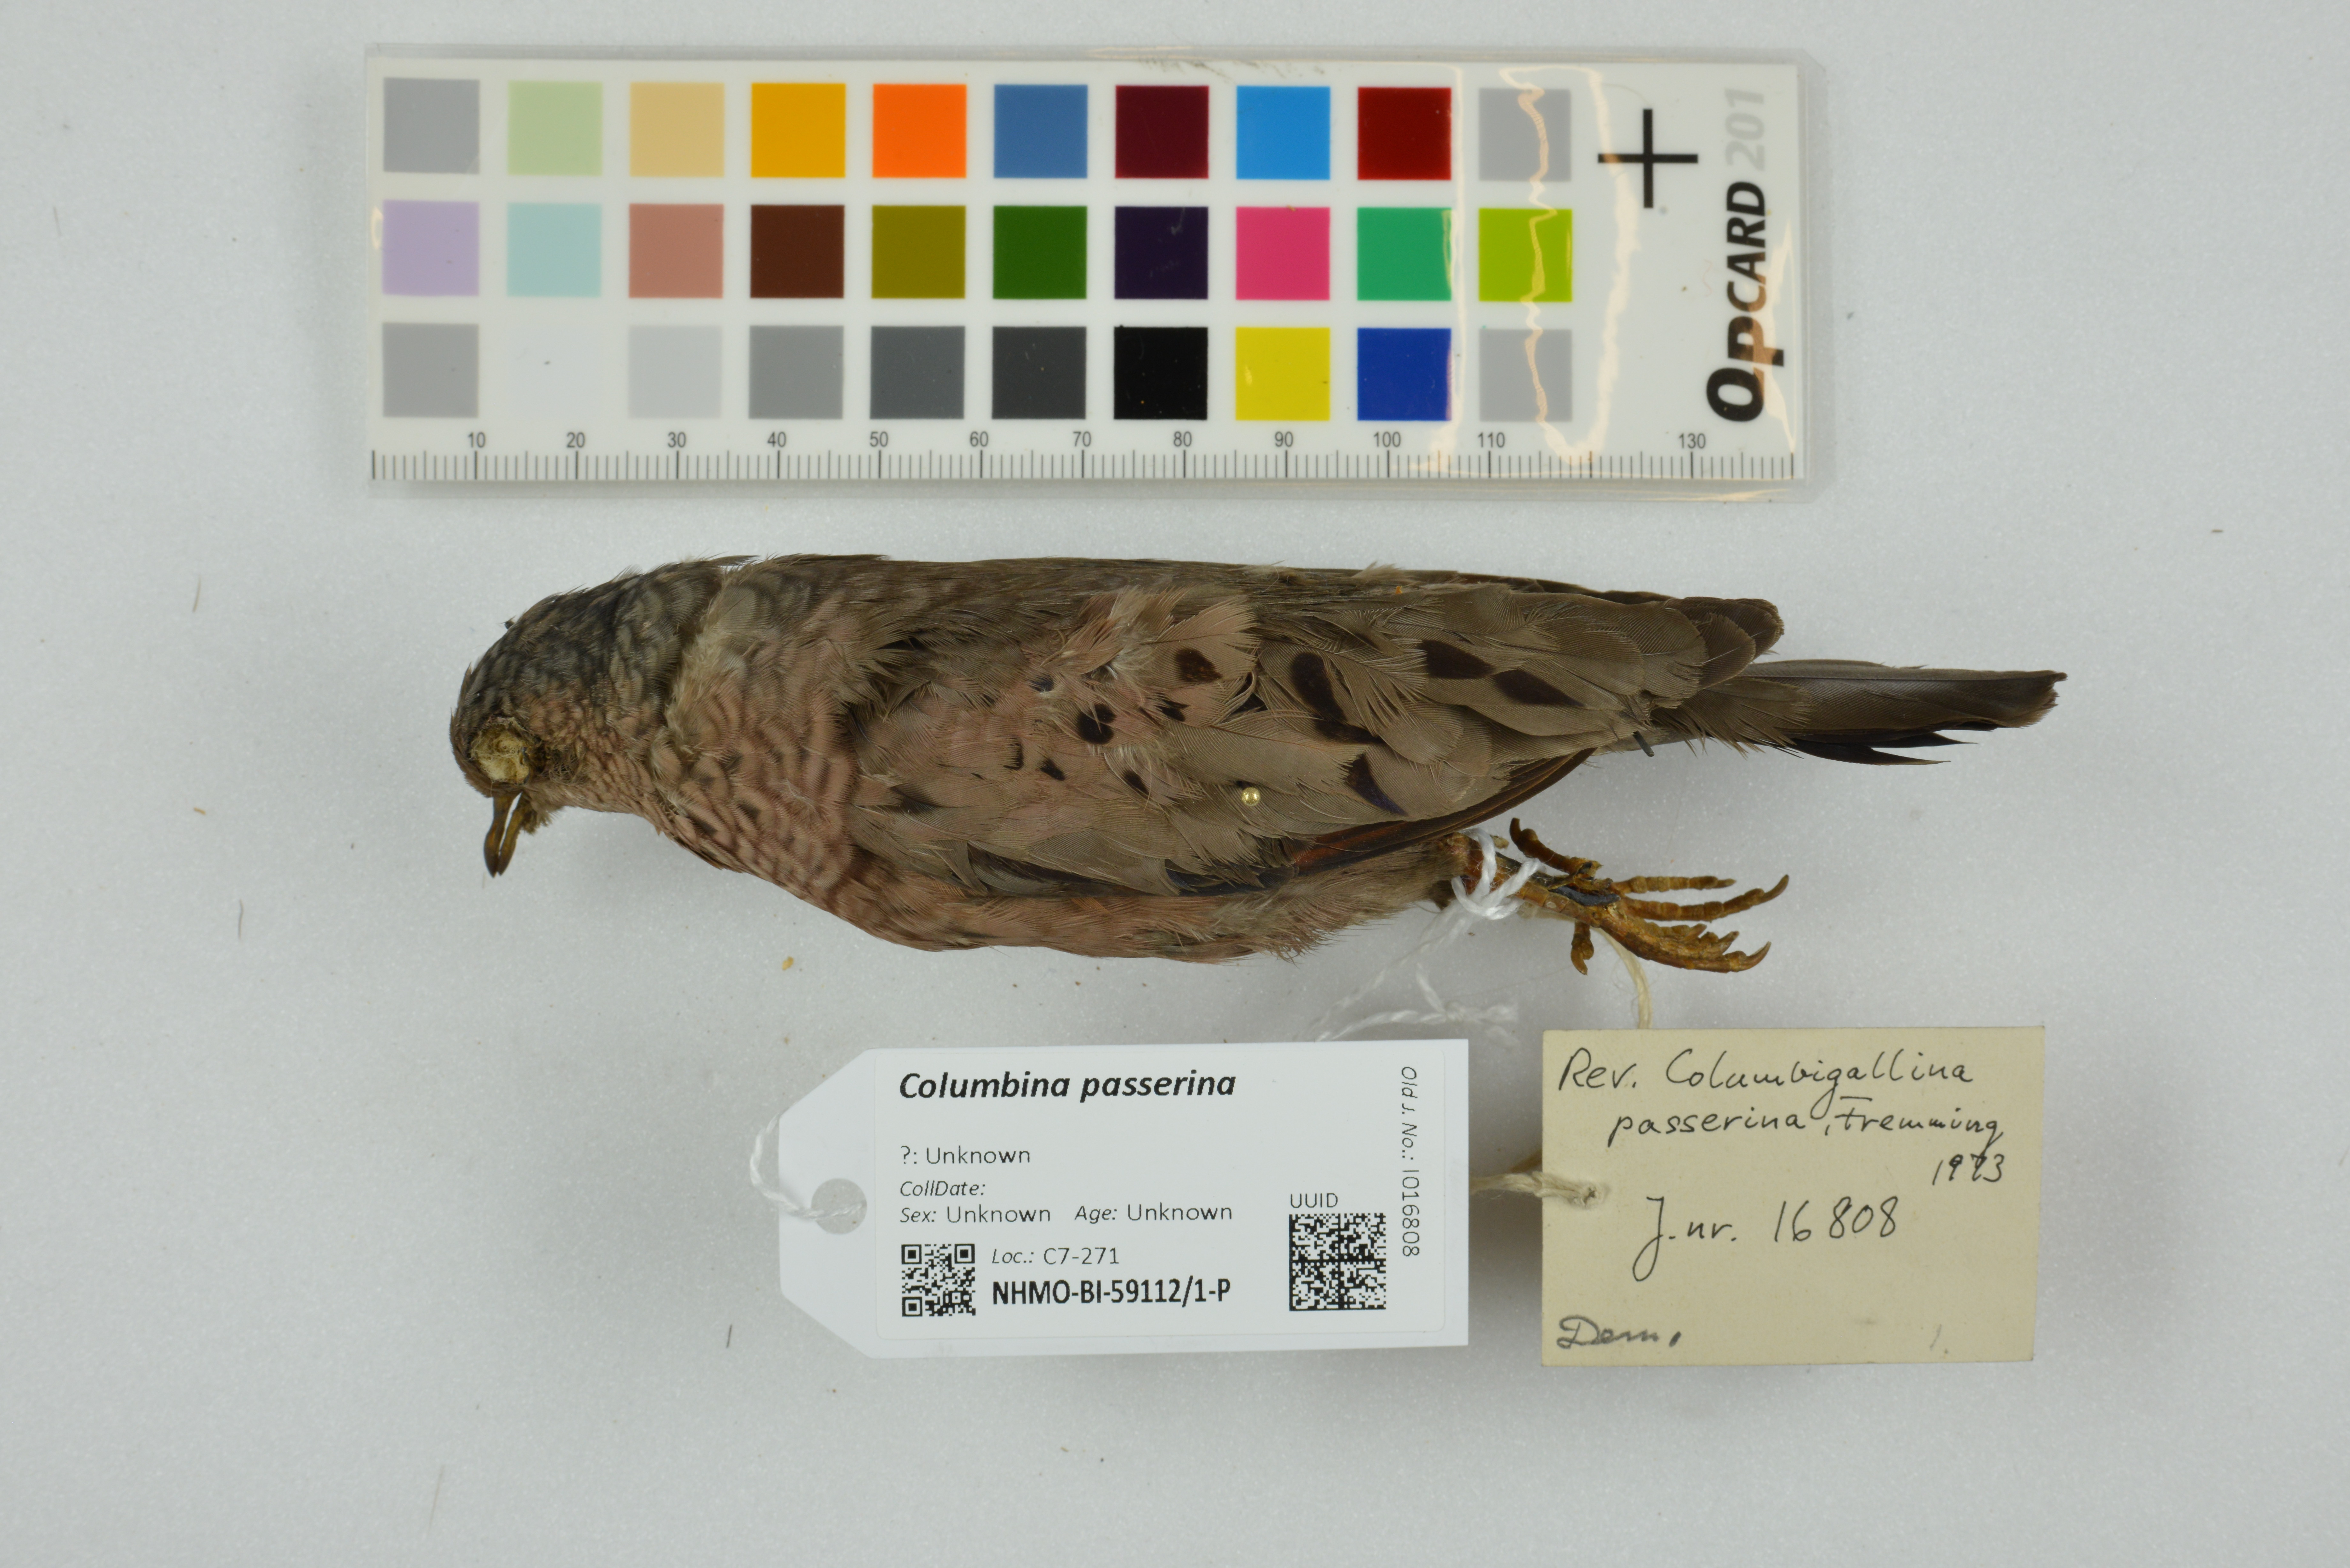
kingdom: Animalia
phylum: Chordata
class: Aves
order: Columbiformes
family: Columbidae
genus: Columbina
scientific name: Columbina passerina
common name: Common ground-dove
